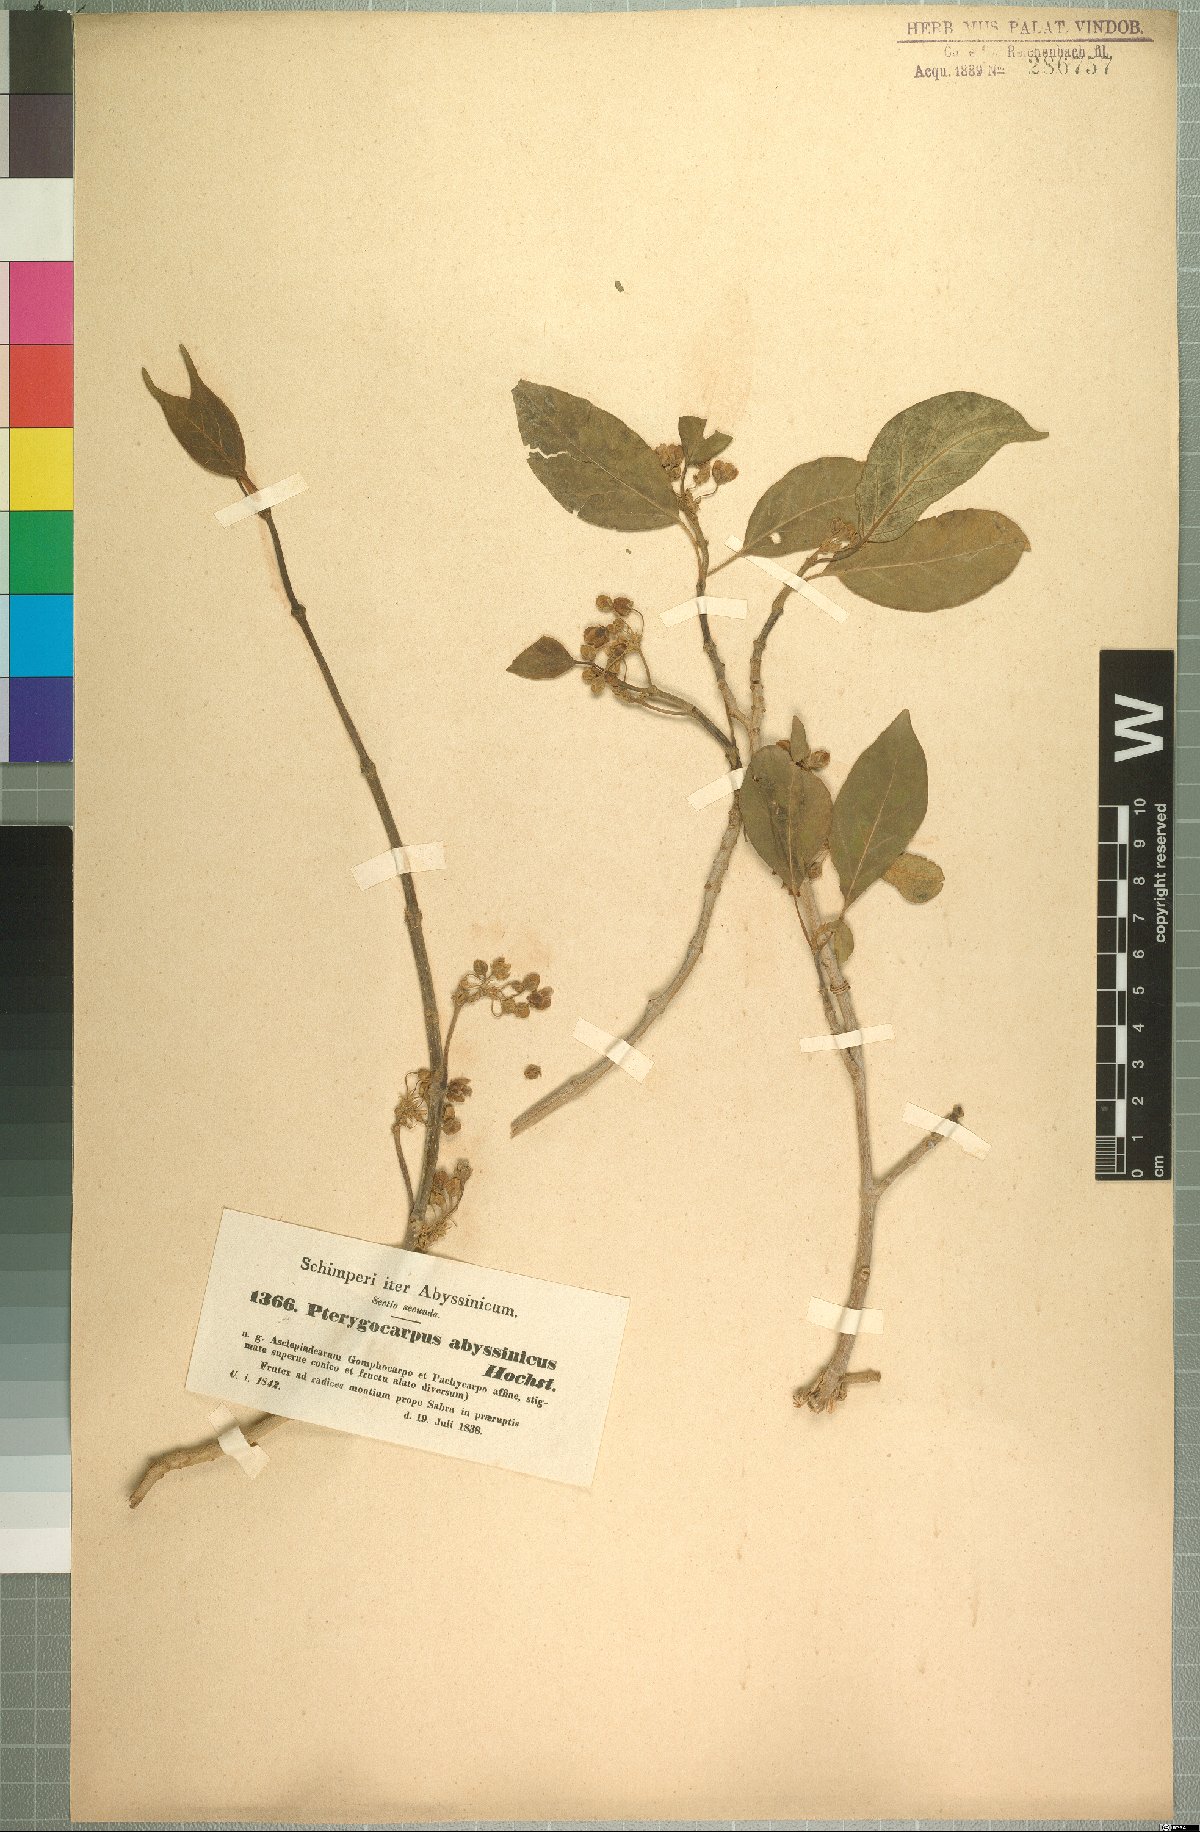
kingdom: Plantae
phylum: Tracheophyta
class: Magnoliopsida
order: Gentianales
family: Apocynaceae
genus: Stephanotis
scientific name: Stephanotis abyssinica
